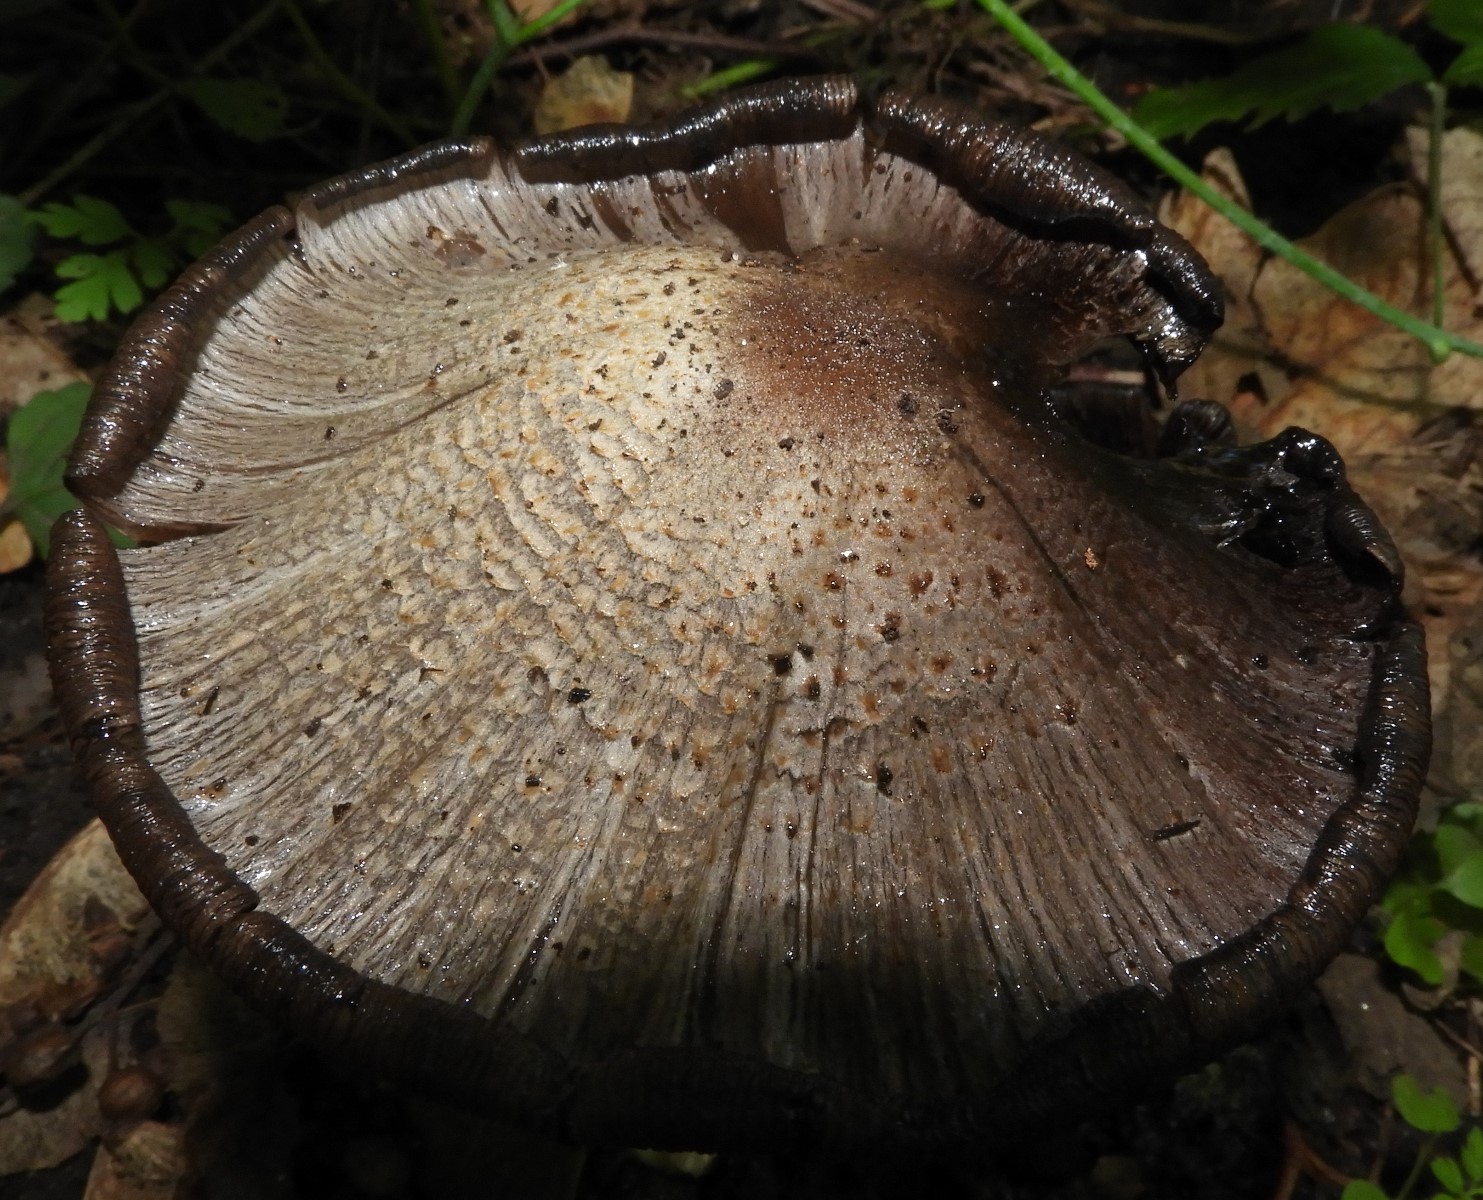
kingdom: Fungi
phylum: Basidiomycota
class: Agaricomycetes
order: Agaricales
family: Psathyrellaceae
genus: Coprinopsis
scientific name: Coprinopsis atramentaria
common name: almindelig blækhat
